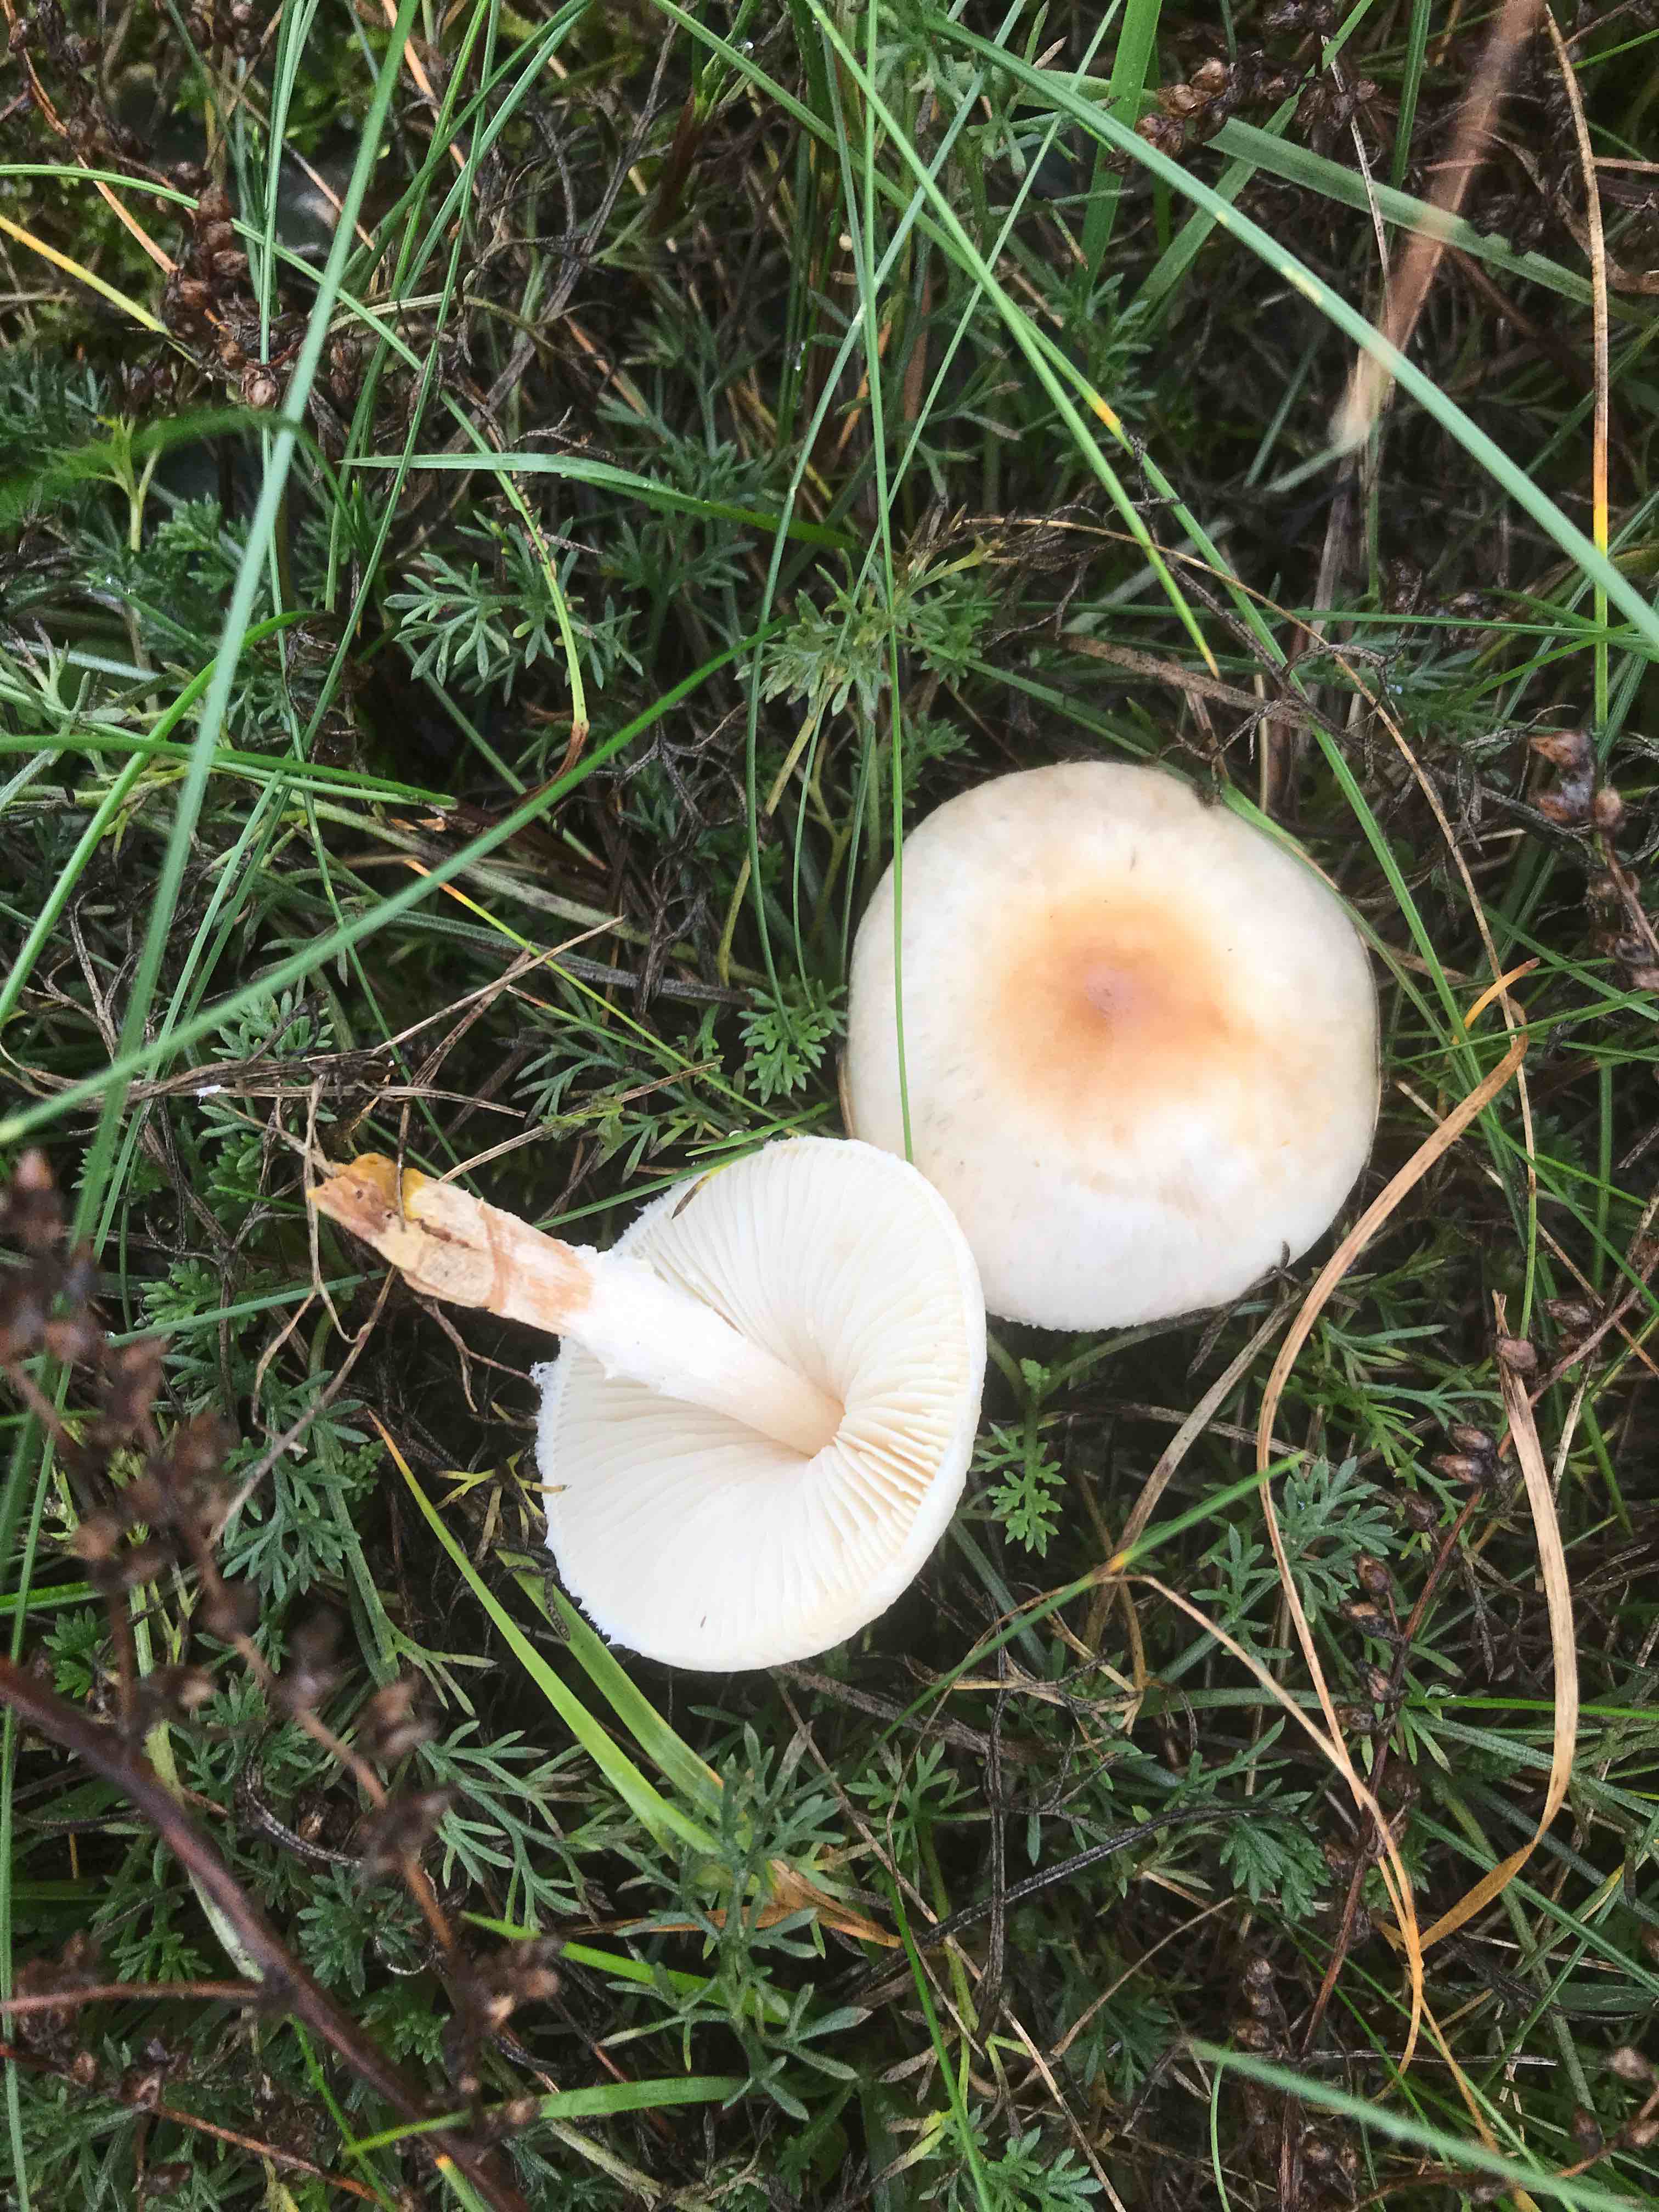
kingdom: Fungi
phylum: Basidiomycota
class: Agaricomycetes
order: Agaricales
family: Agaricaceae
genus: Lepiota
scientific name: Lepiota erminea
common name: hvid parasolhat
